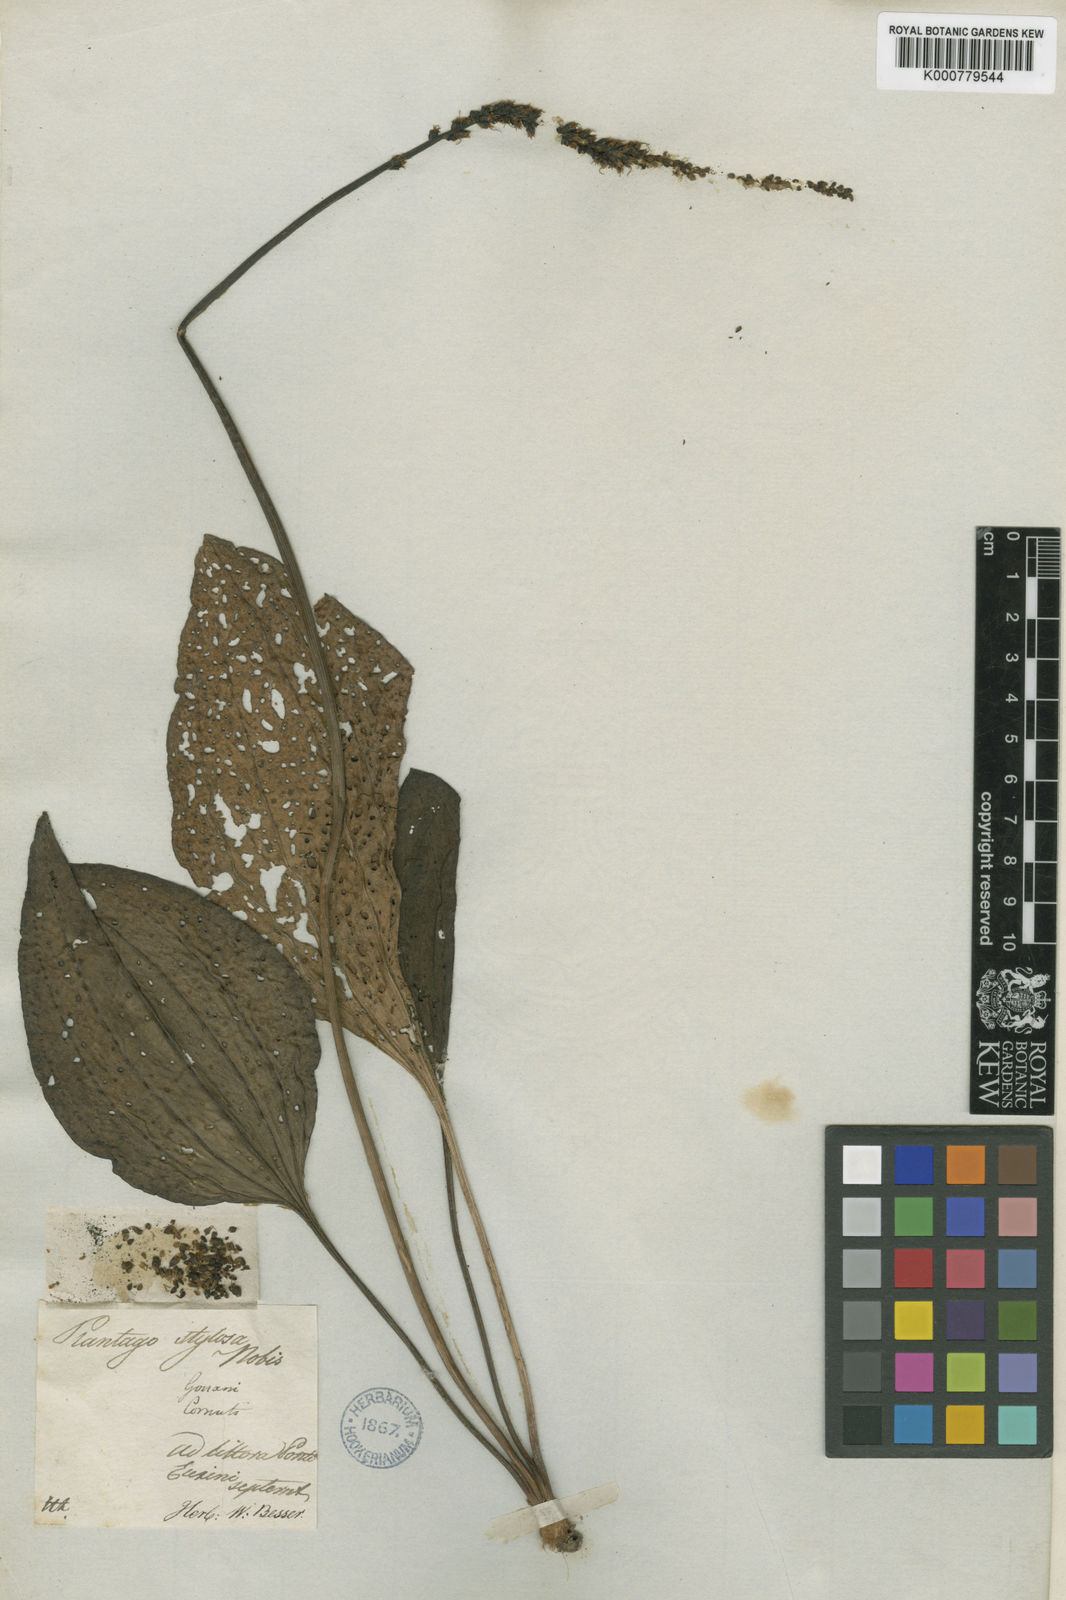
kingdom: Plantae
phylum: Tracheophyta
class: Magnoliopsida
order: Lamiales
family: Plantaginaceae
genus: Plantago
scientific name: Plantago cornuti
